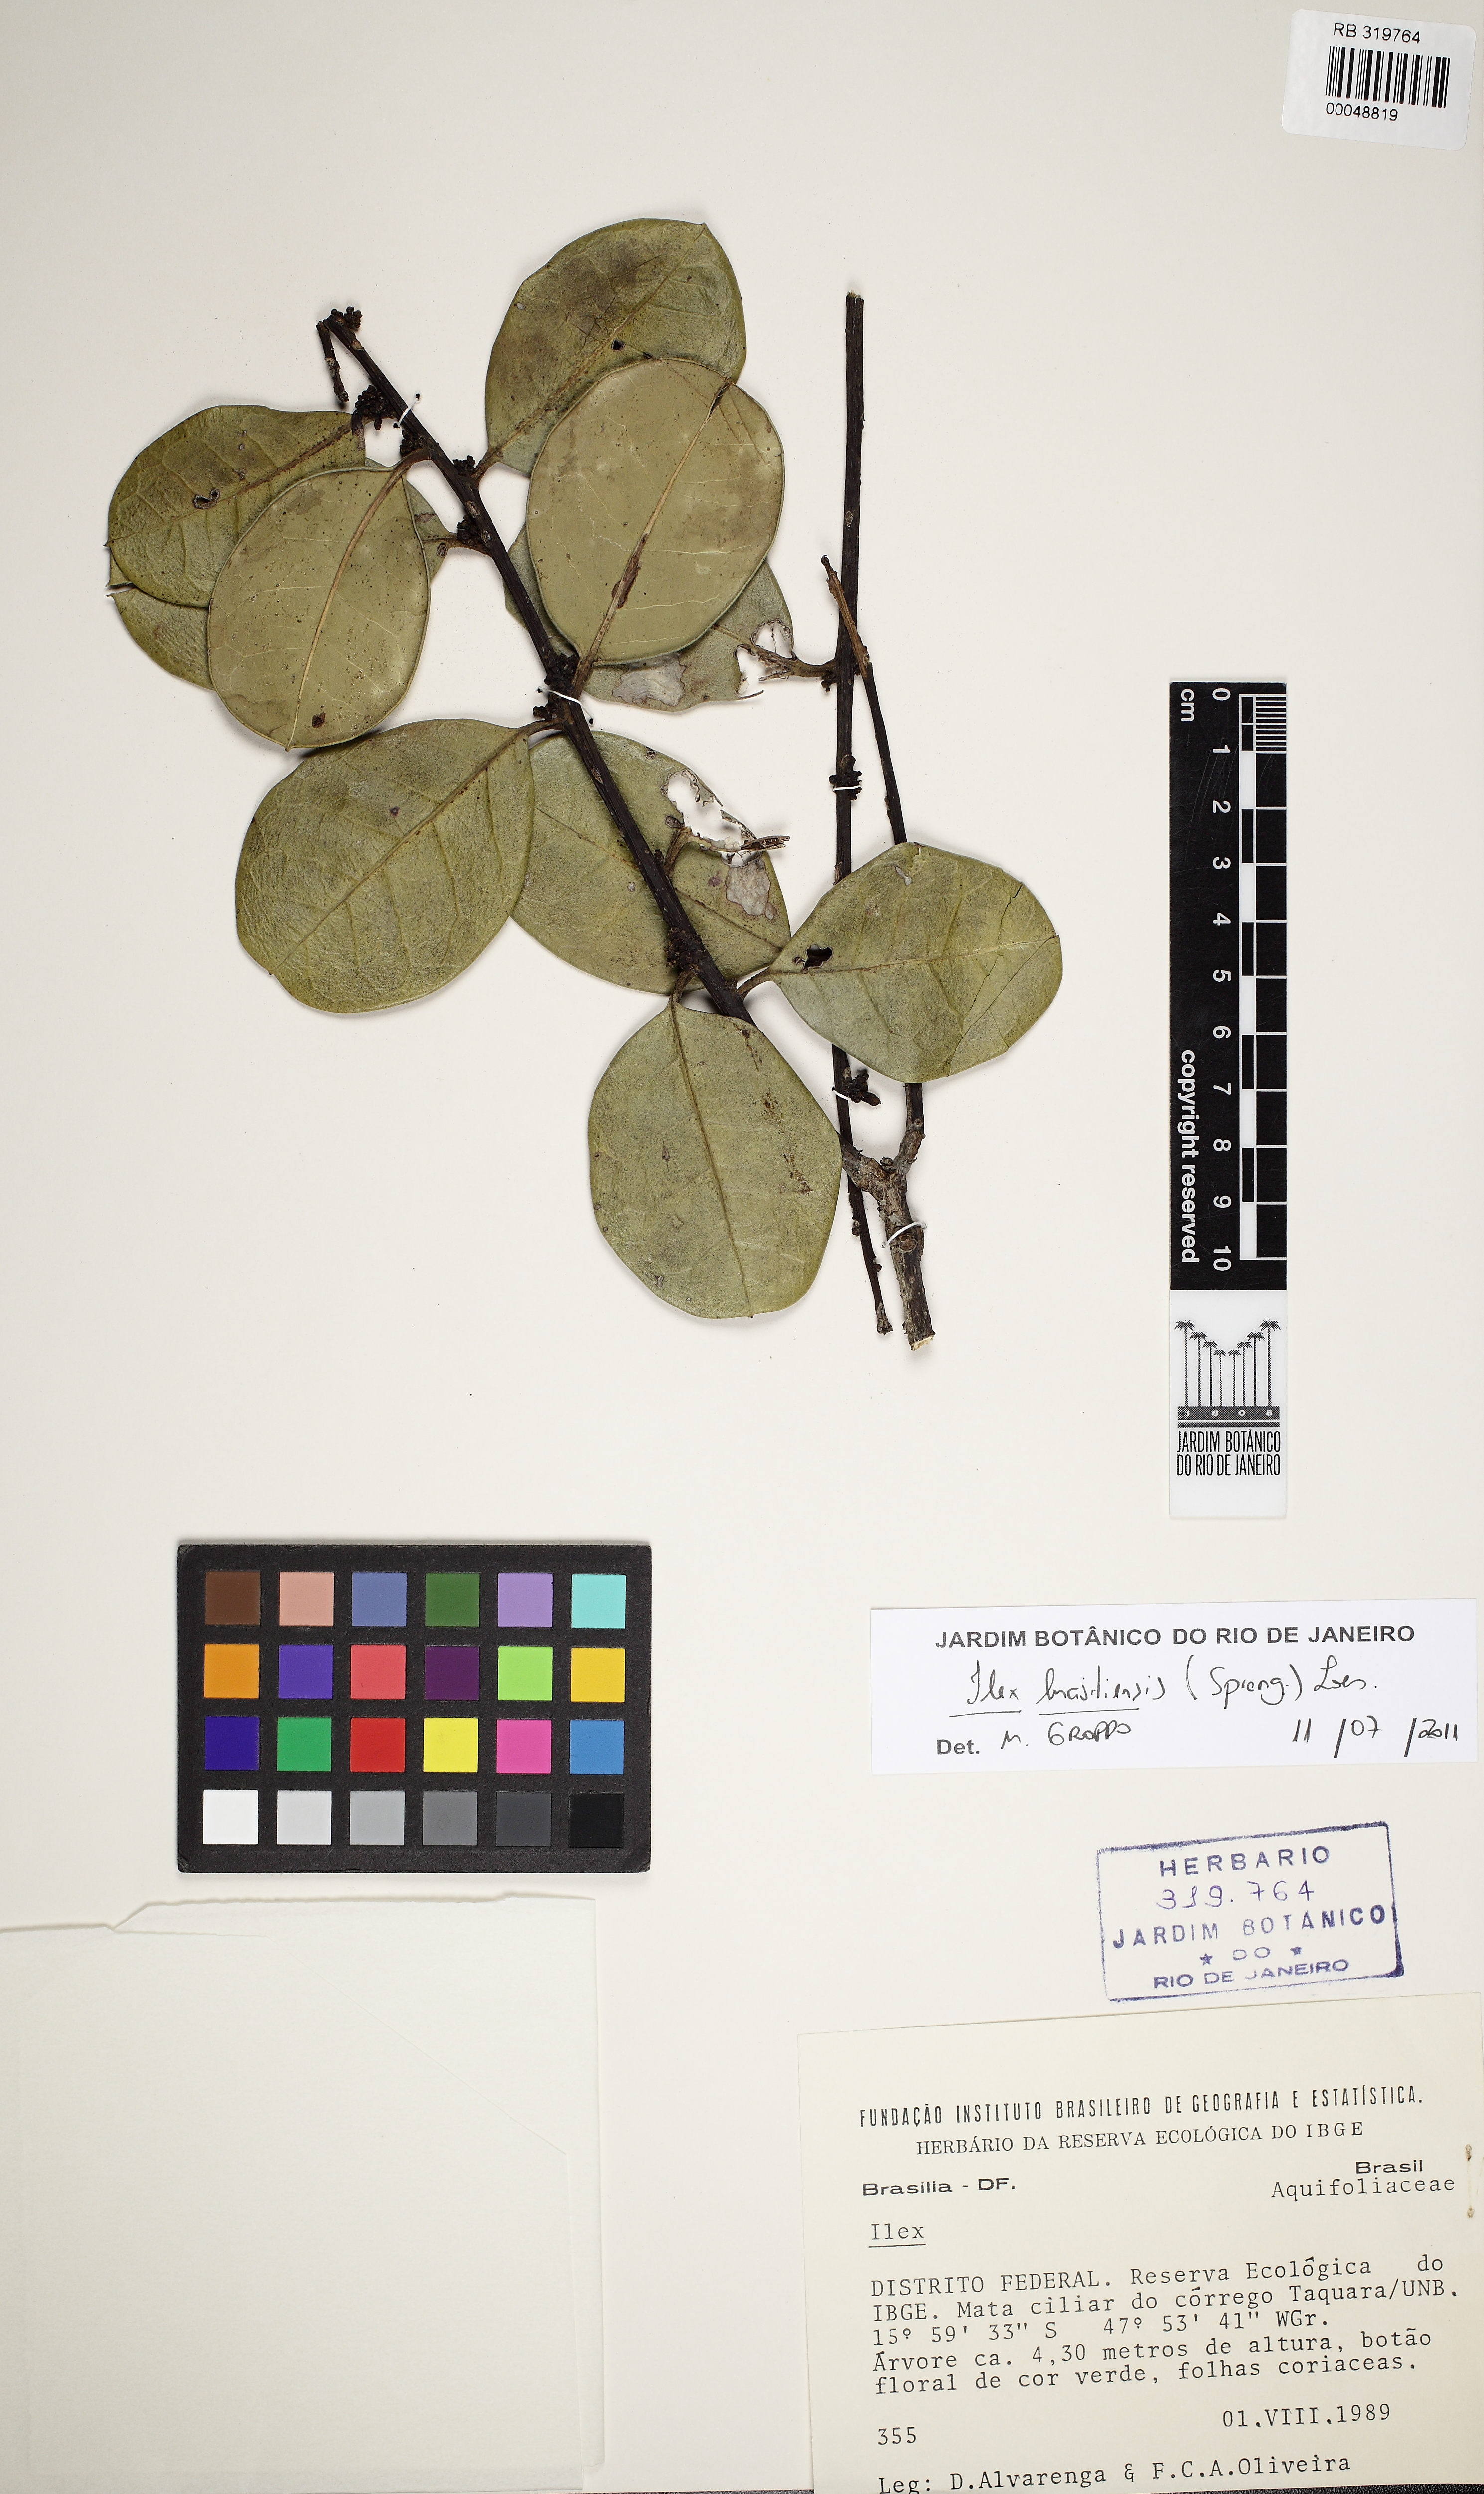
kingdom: Plantae
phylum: Tracheophyta
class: Magnoliopsida
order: Aquifoliales
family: Aquifoliaceae
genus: Ilex
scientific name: Ilex brasiliensis
